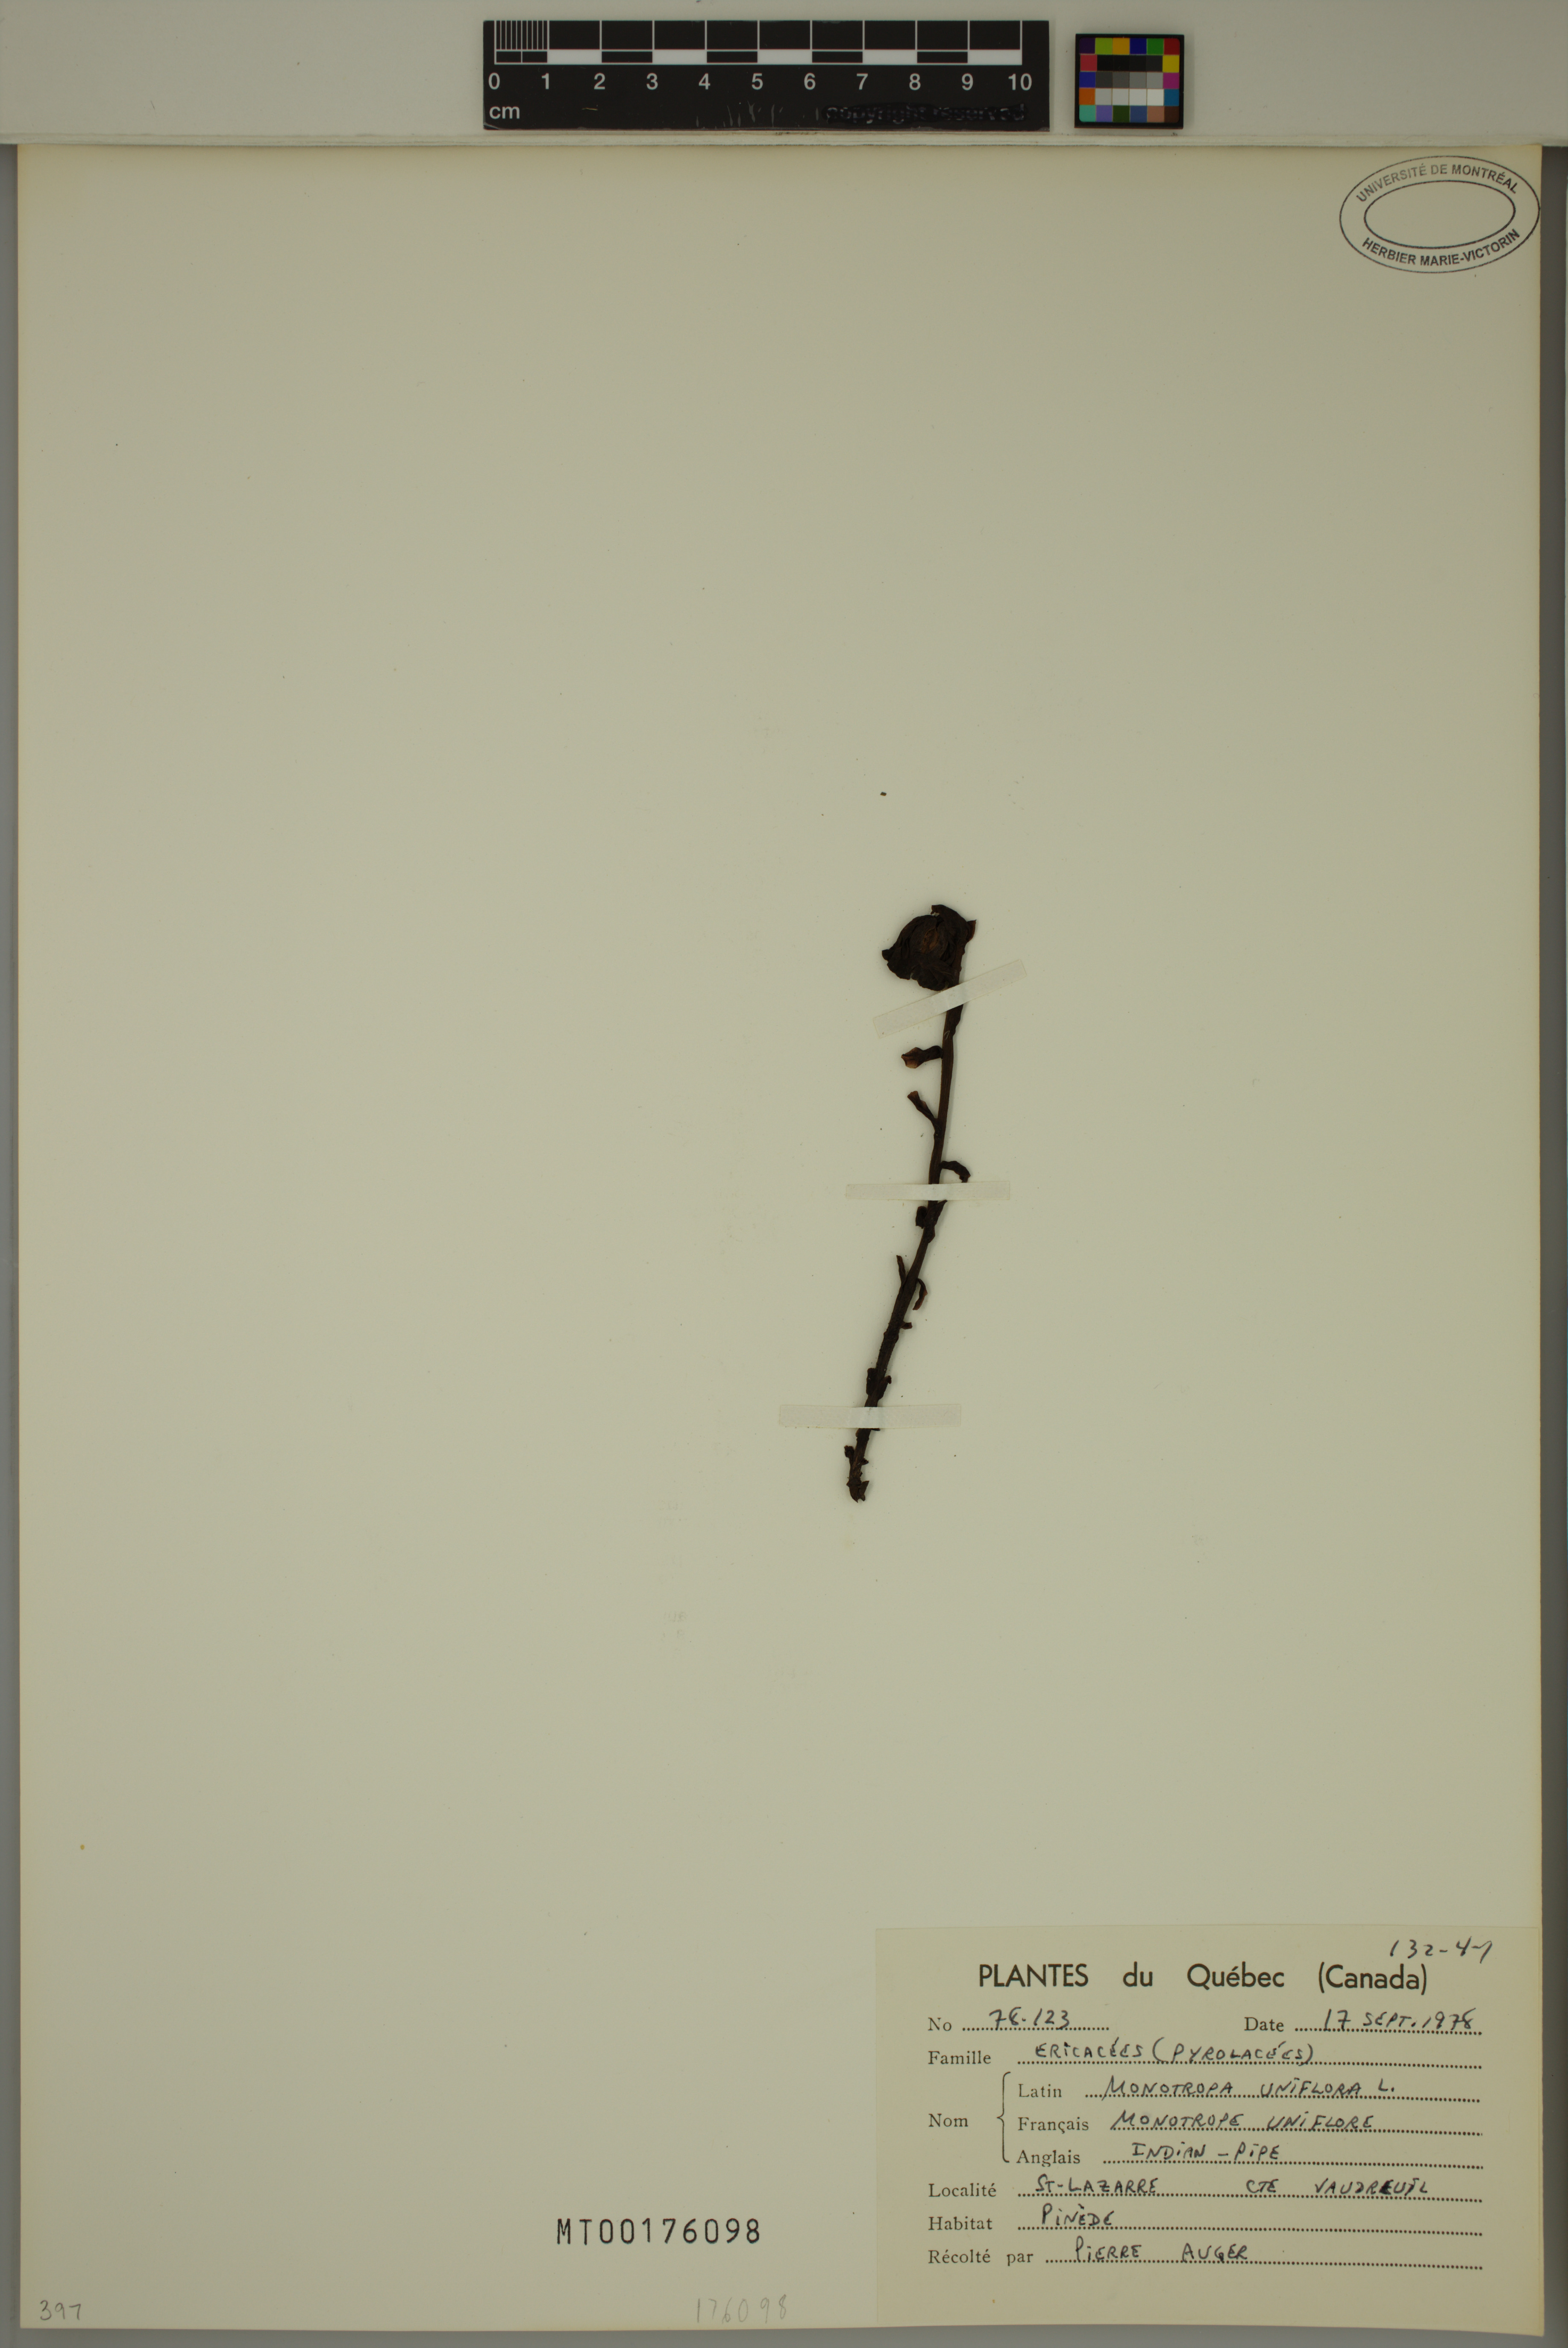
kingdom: Plantae
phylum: Tracheophyta
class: Magnoliopsida
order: Ericales
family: Ericaceae
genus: Monotropa
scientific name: Monotropa uniflora
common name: Convulsion root
